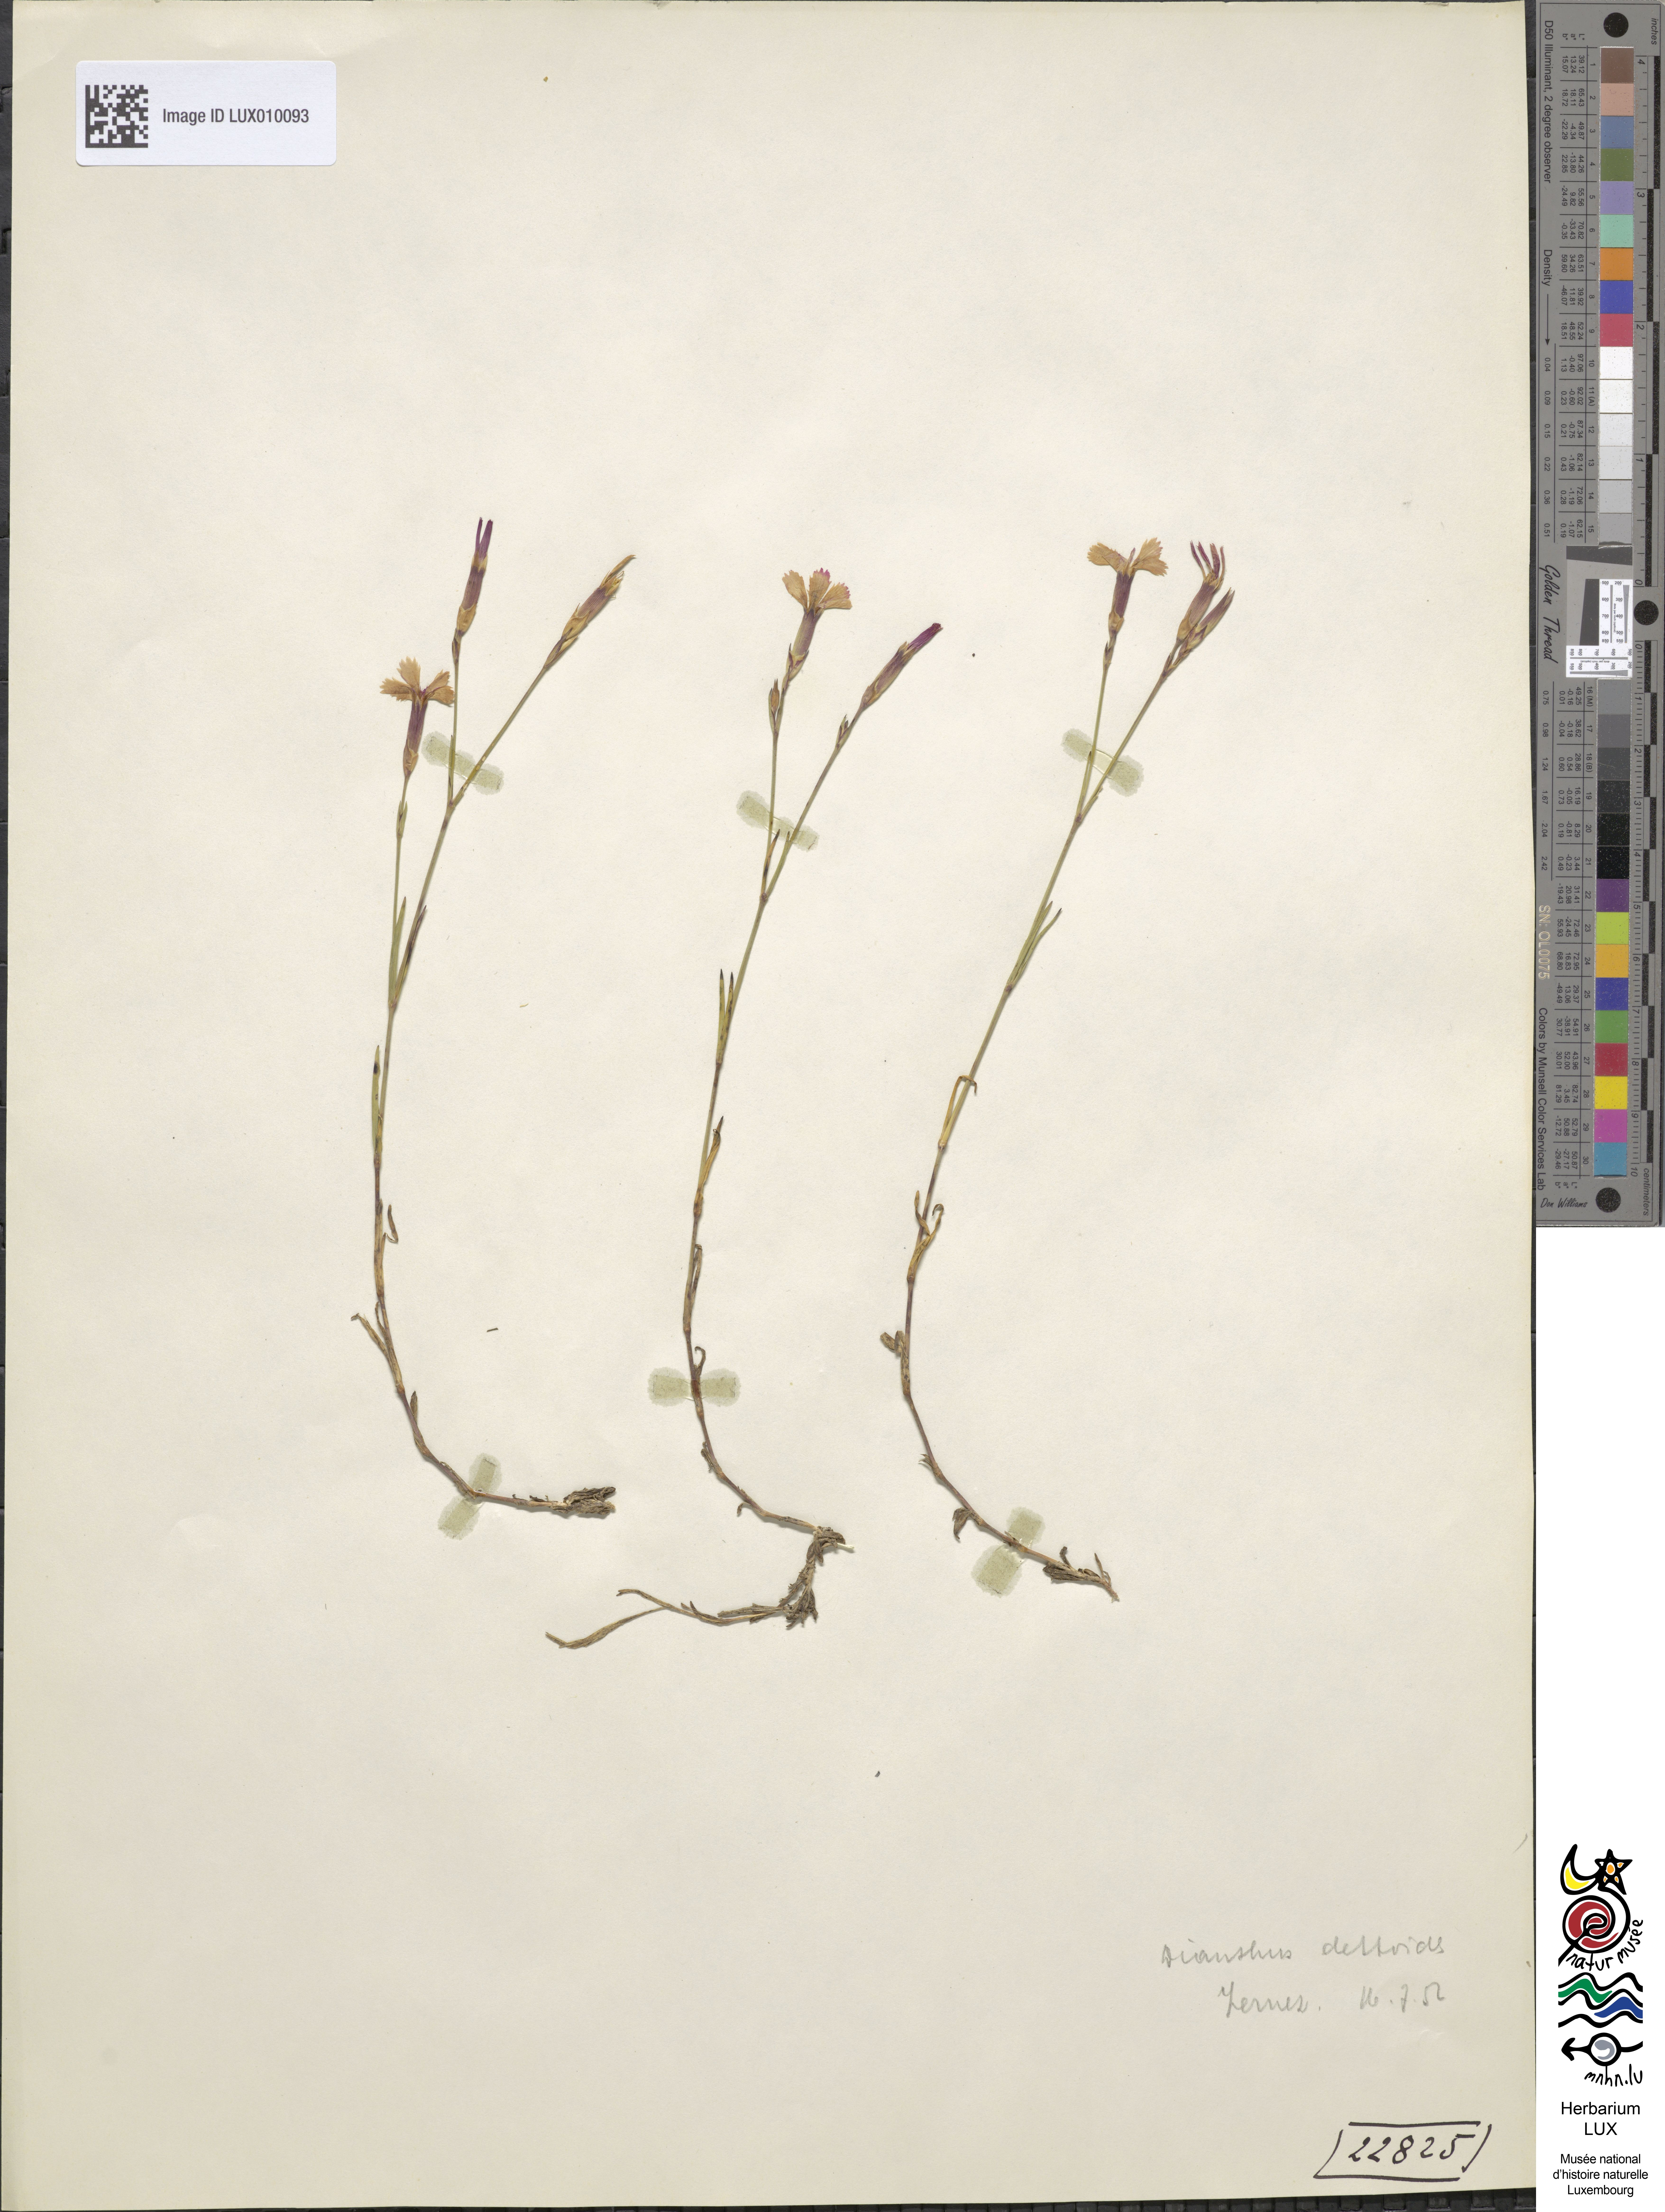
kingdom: Plantae
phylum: Tracheophyta
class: Magnoliopsida
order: Caryophyllales
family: Caryophyllaceae
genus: Dianthus
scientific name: Dianthus deltoides
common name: Maiden pink
